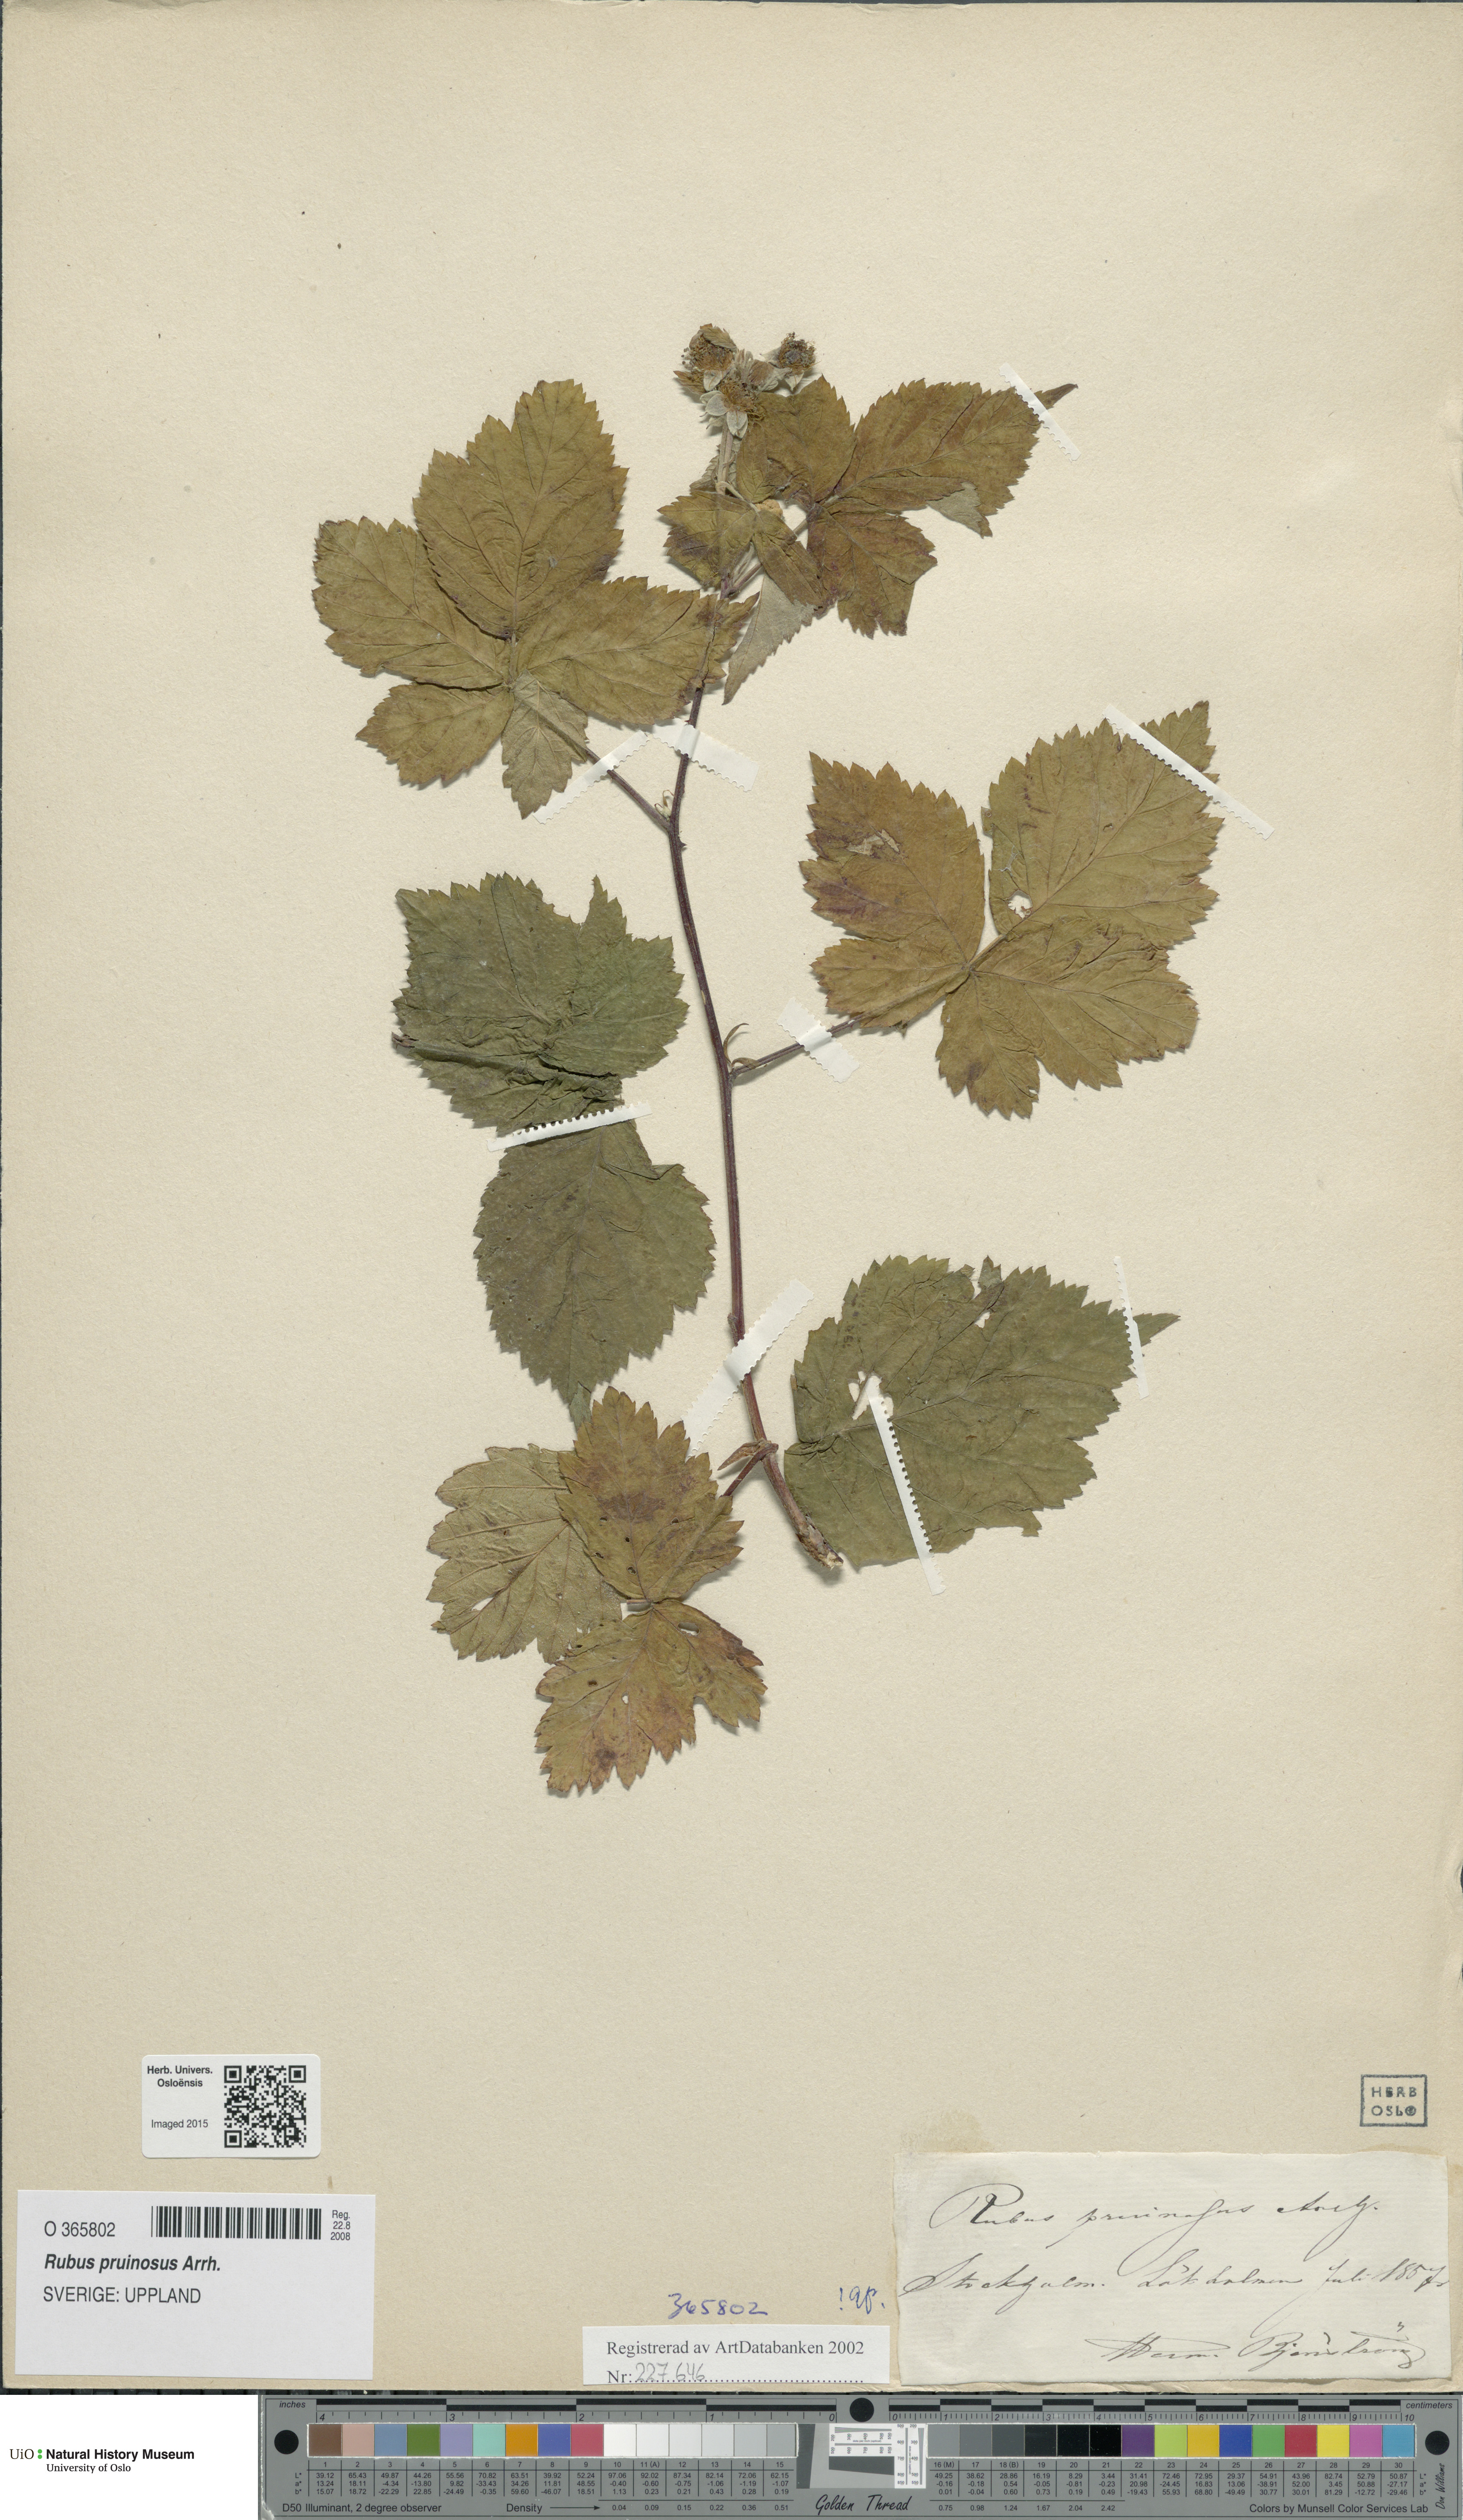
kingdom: Plantae
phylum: Tracheophyta
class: Magnoliopsida
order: Rosales
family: Rosaceae
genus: Rubus
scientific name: Rubus pruinosus
